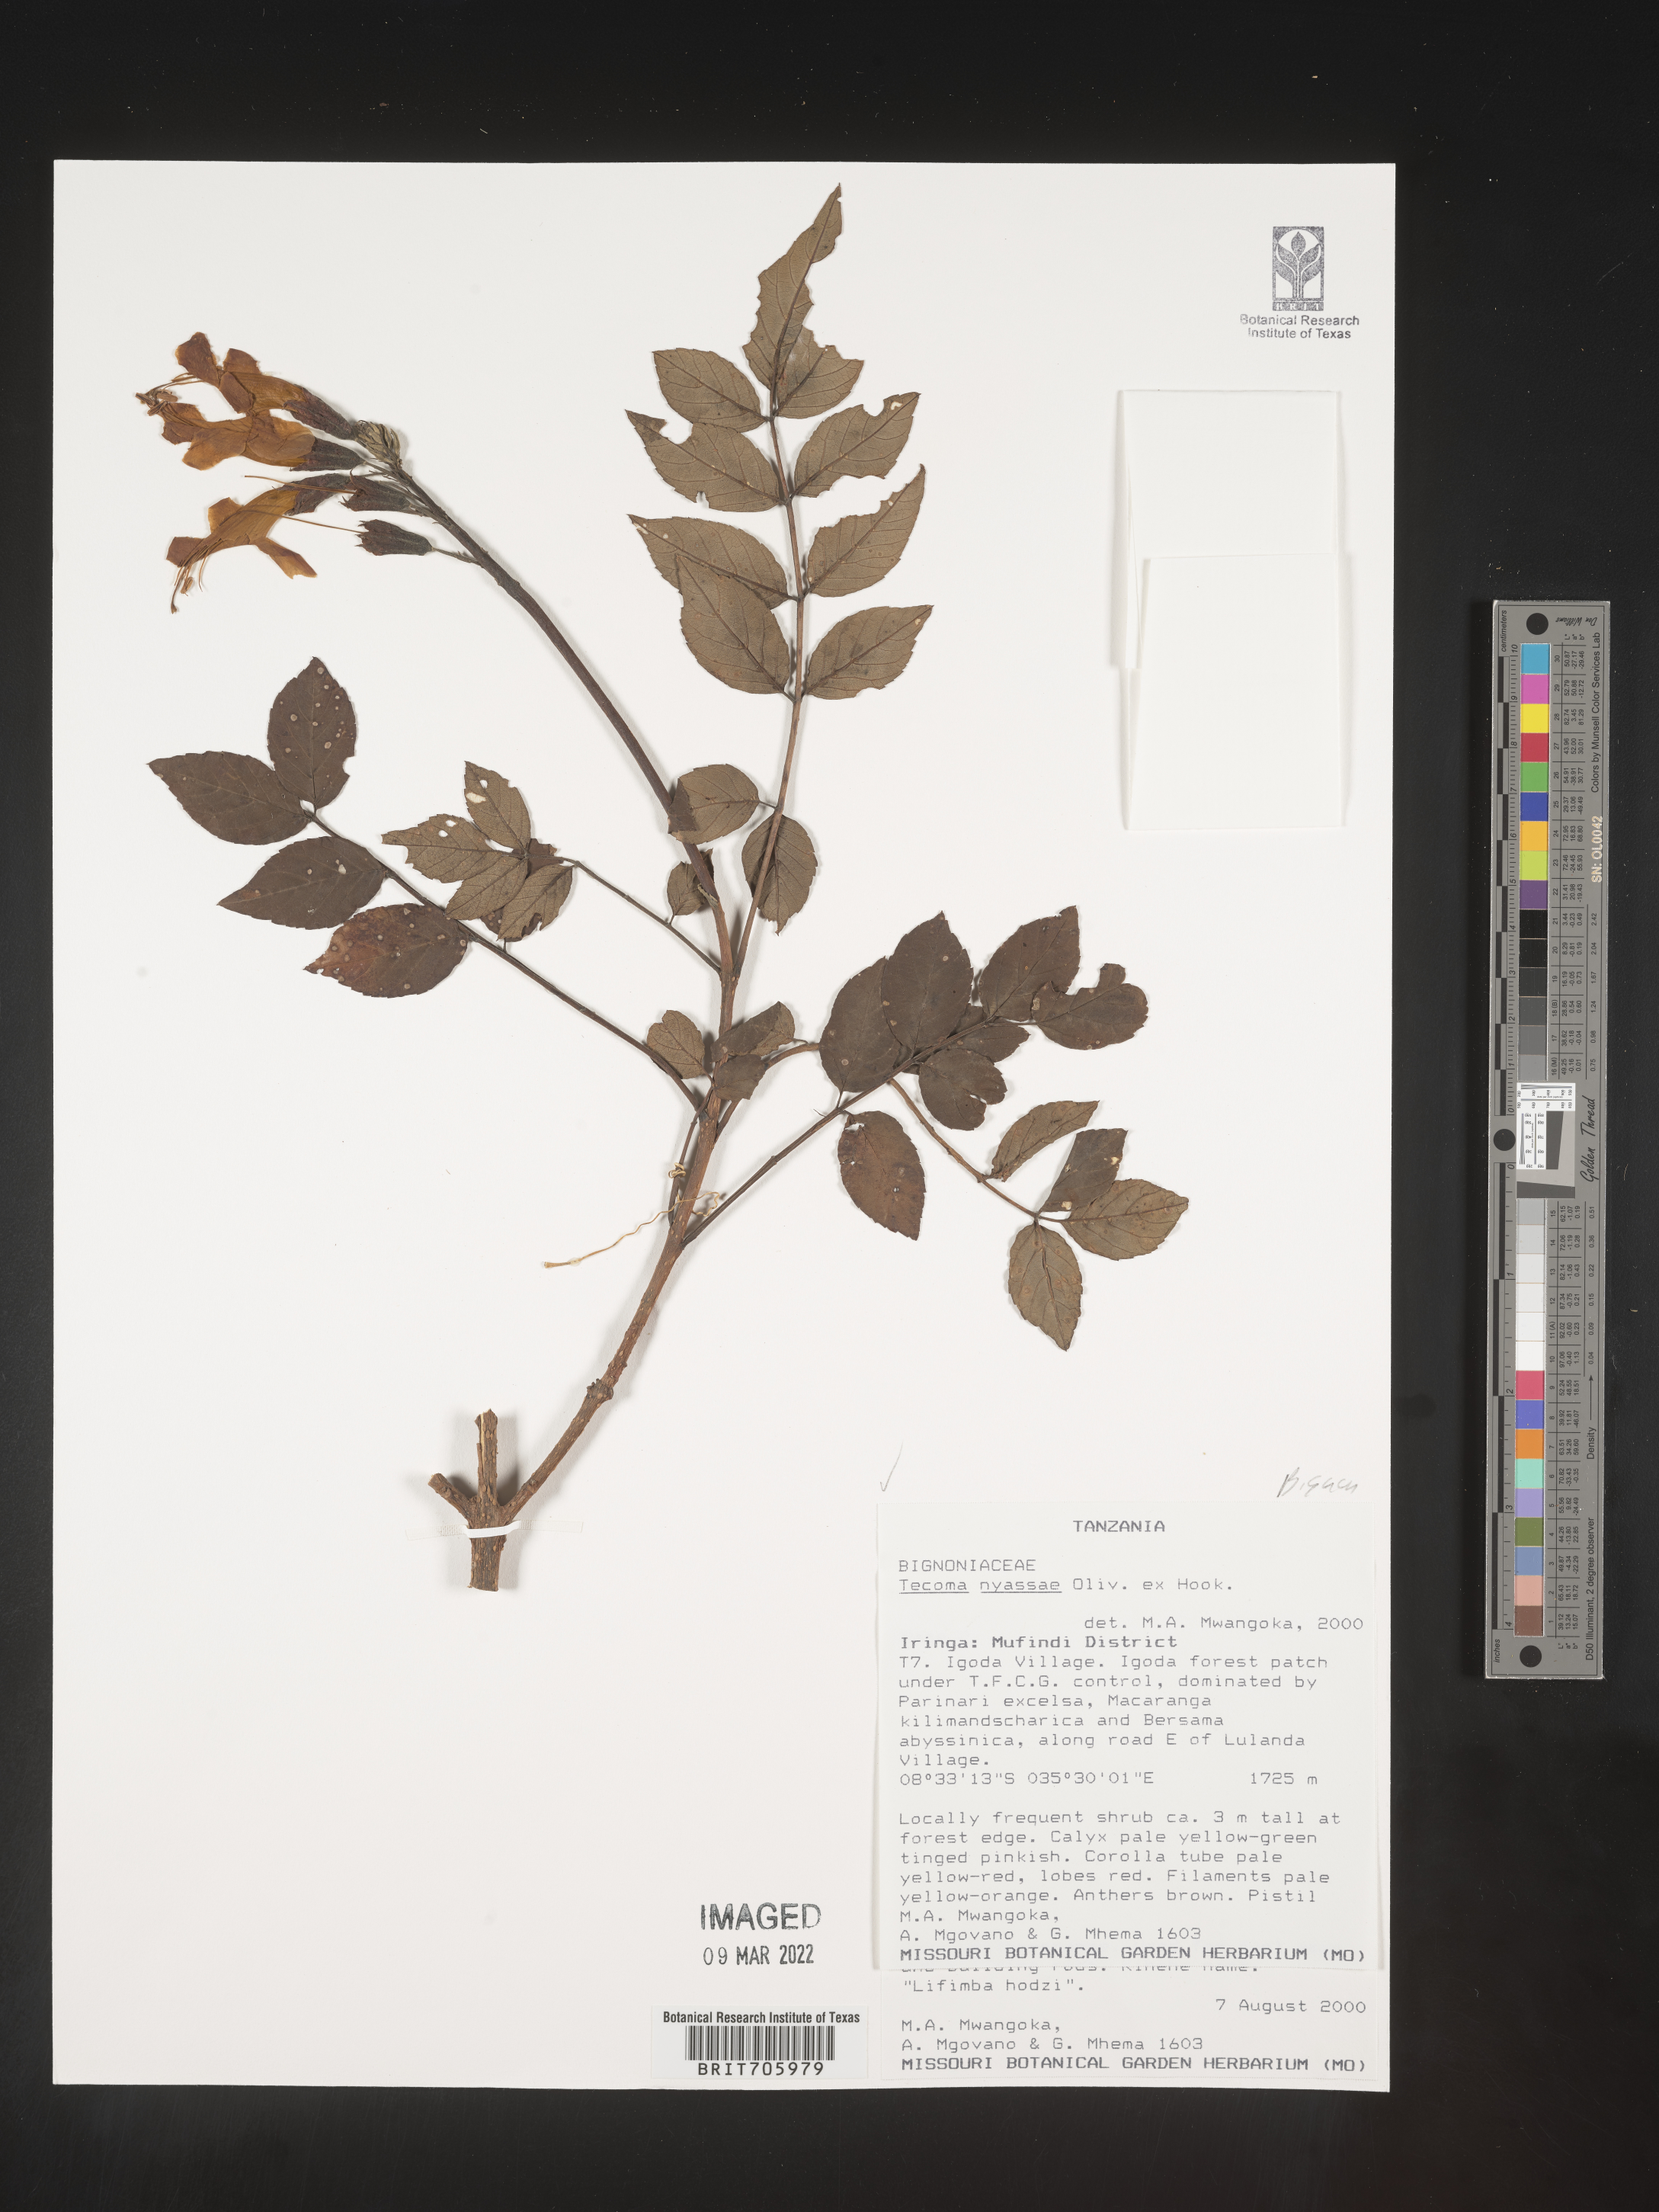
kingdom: Plantae
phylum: Tracheophyta
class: Magnoliopsida
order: Lamiales
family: Bignoniaceae
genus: Tecoma
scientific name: Tecoma
